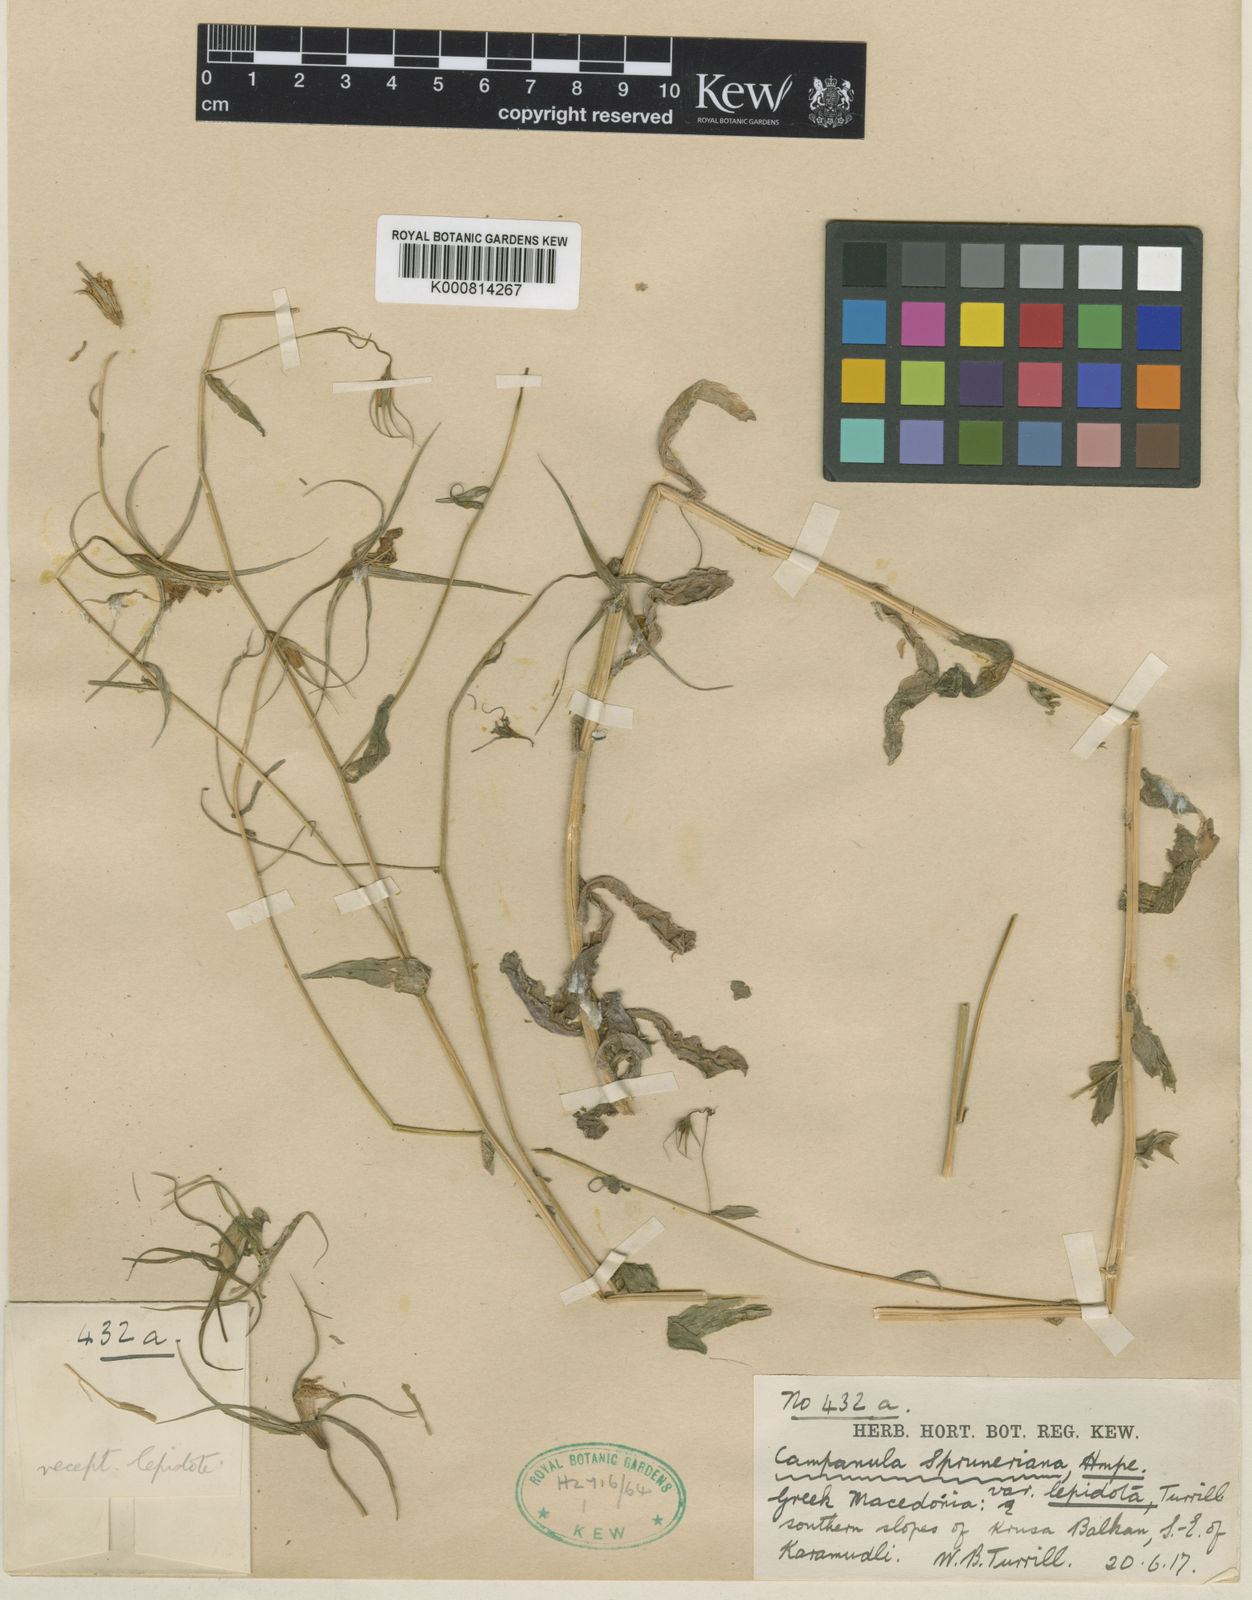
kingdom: Plantae
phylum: Tracheophyta
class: Magnoliopsida
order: Asterales
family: Campanulaceae
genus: Campanula
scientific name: Campanula trichopoda
